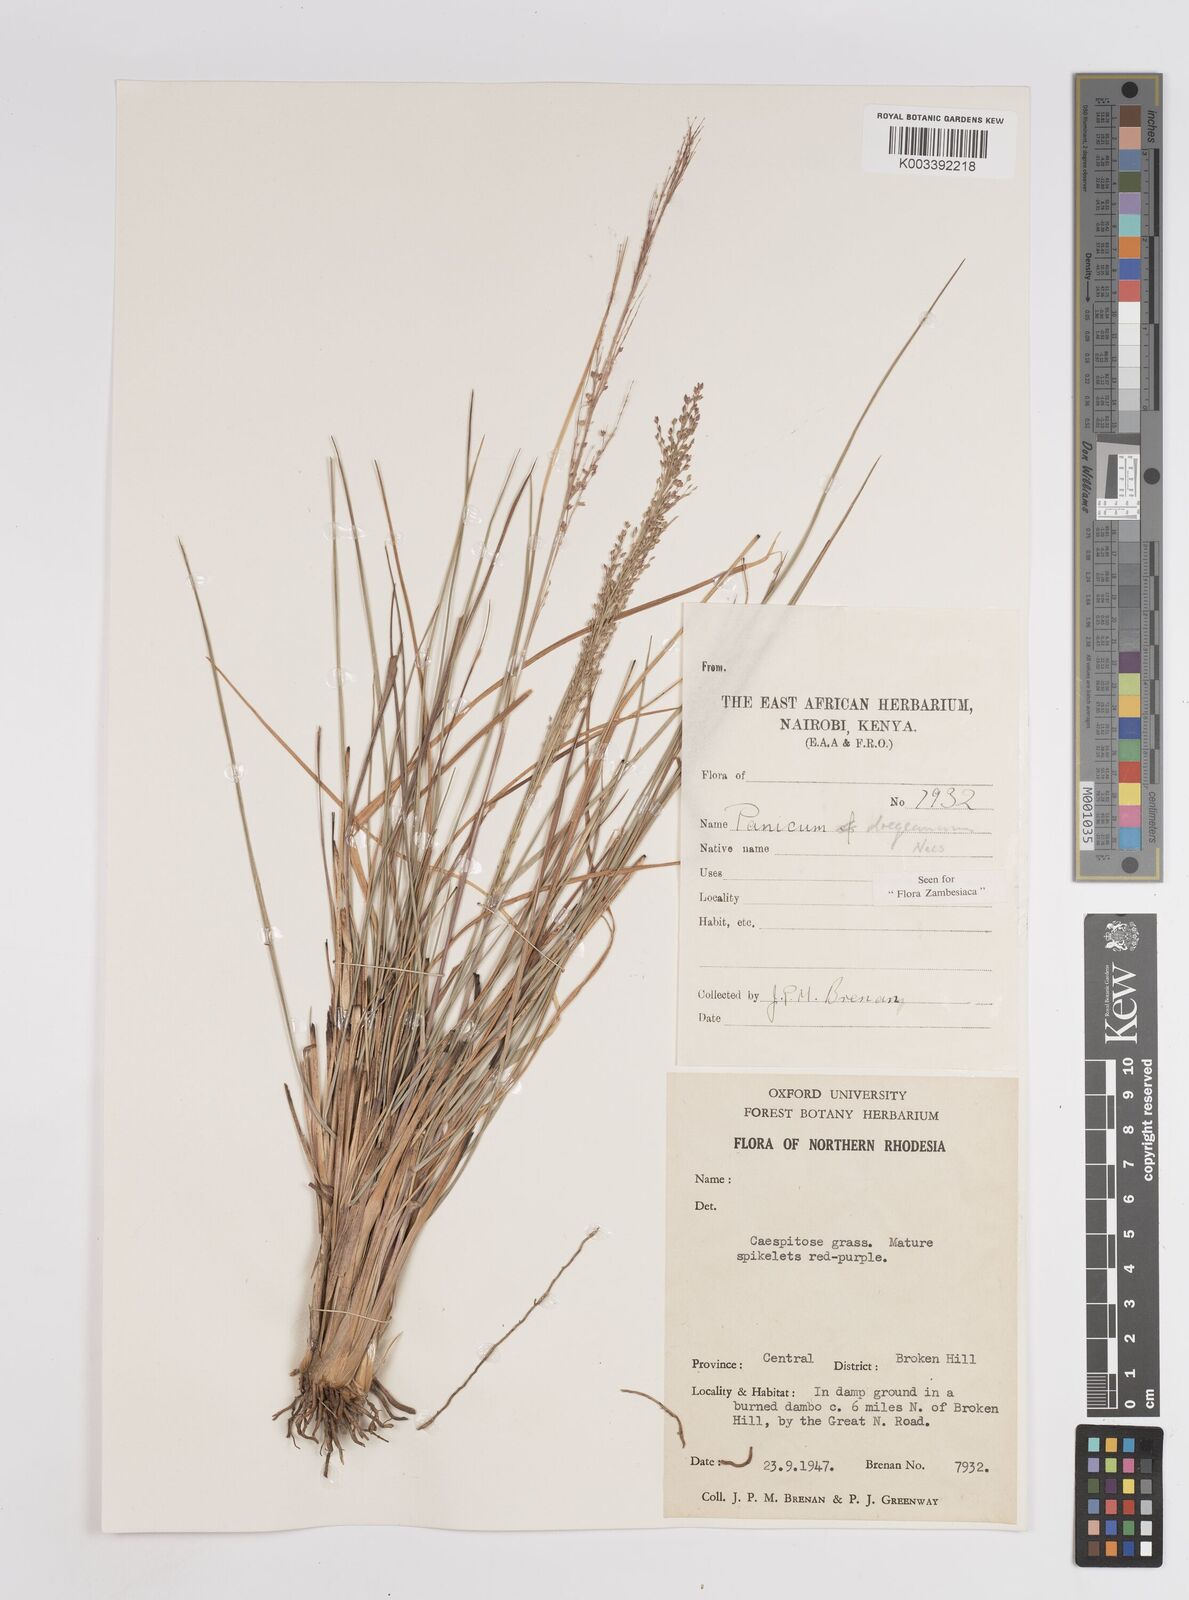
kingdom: Plantae
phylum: Tracheophyta
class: Liliopsida
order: Poales
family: Poaceae
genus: Panicum
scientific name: Panicum dregeanum
